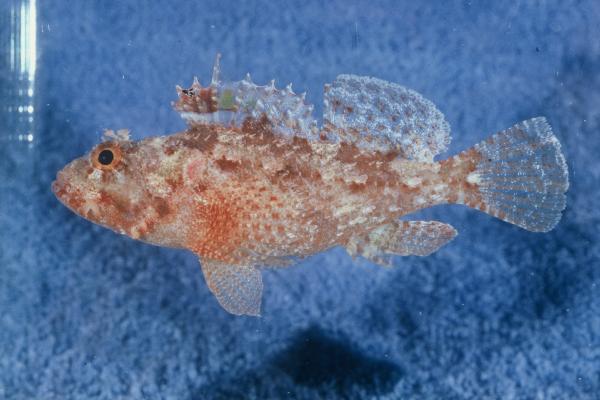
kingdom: Animalia
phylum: Chordata
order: Scorpaeniformes
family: Scorpaenidae
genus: Iracundus
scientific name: Iracundus signifer
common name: Decoy scorpionfish
